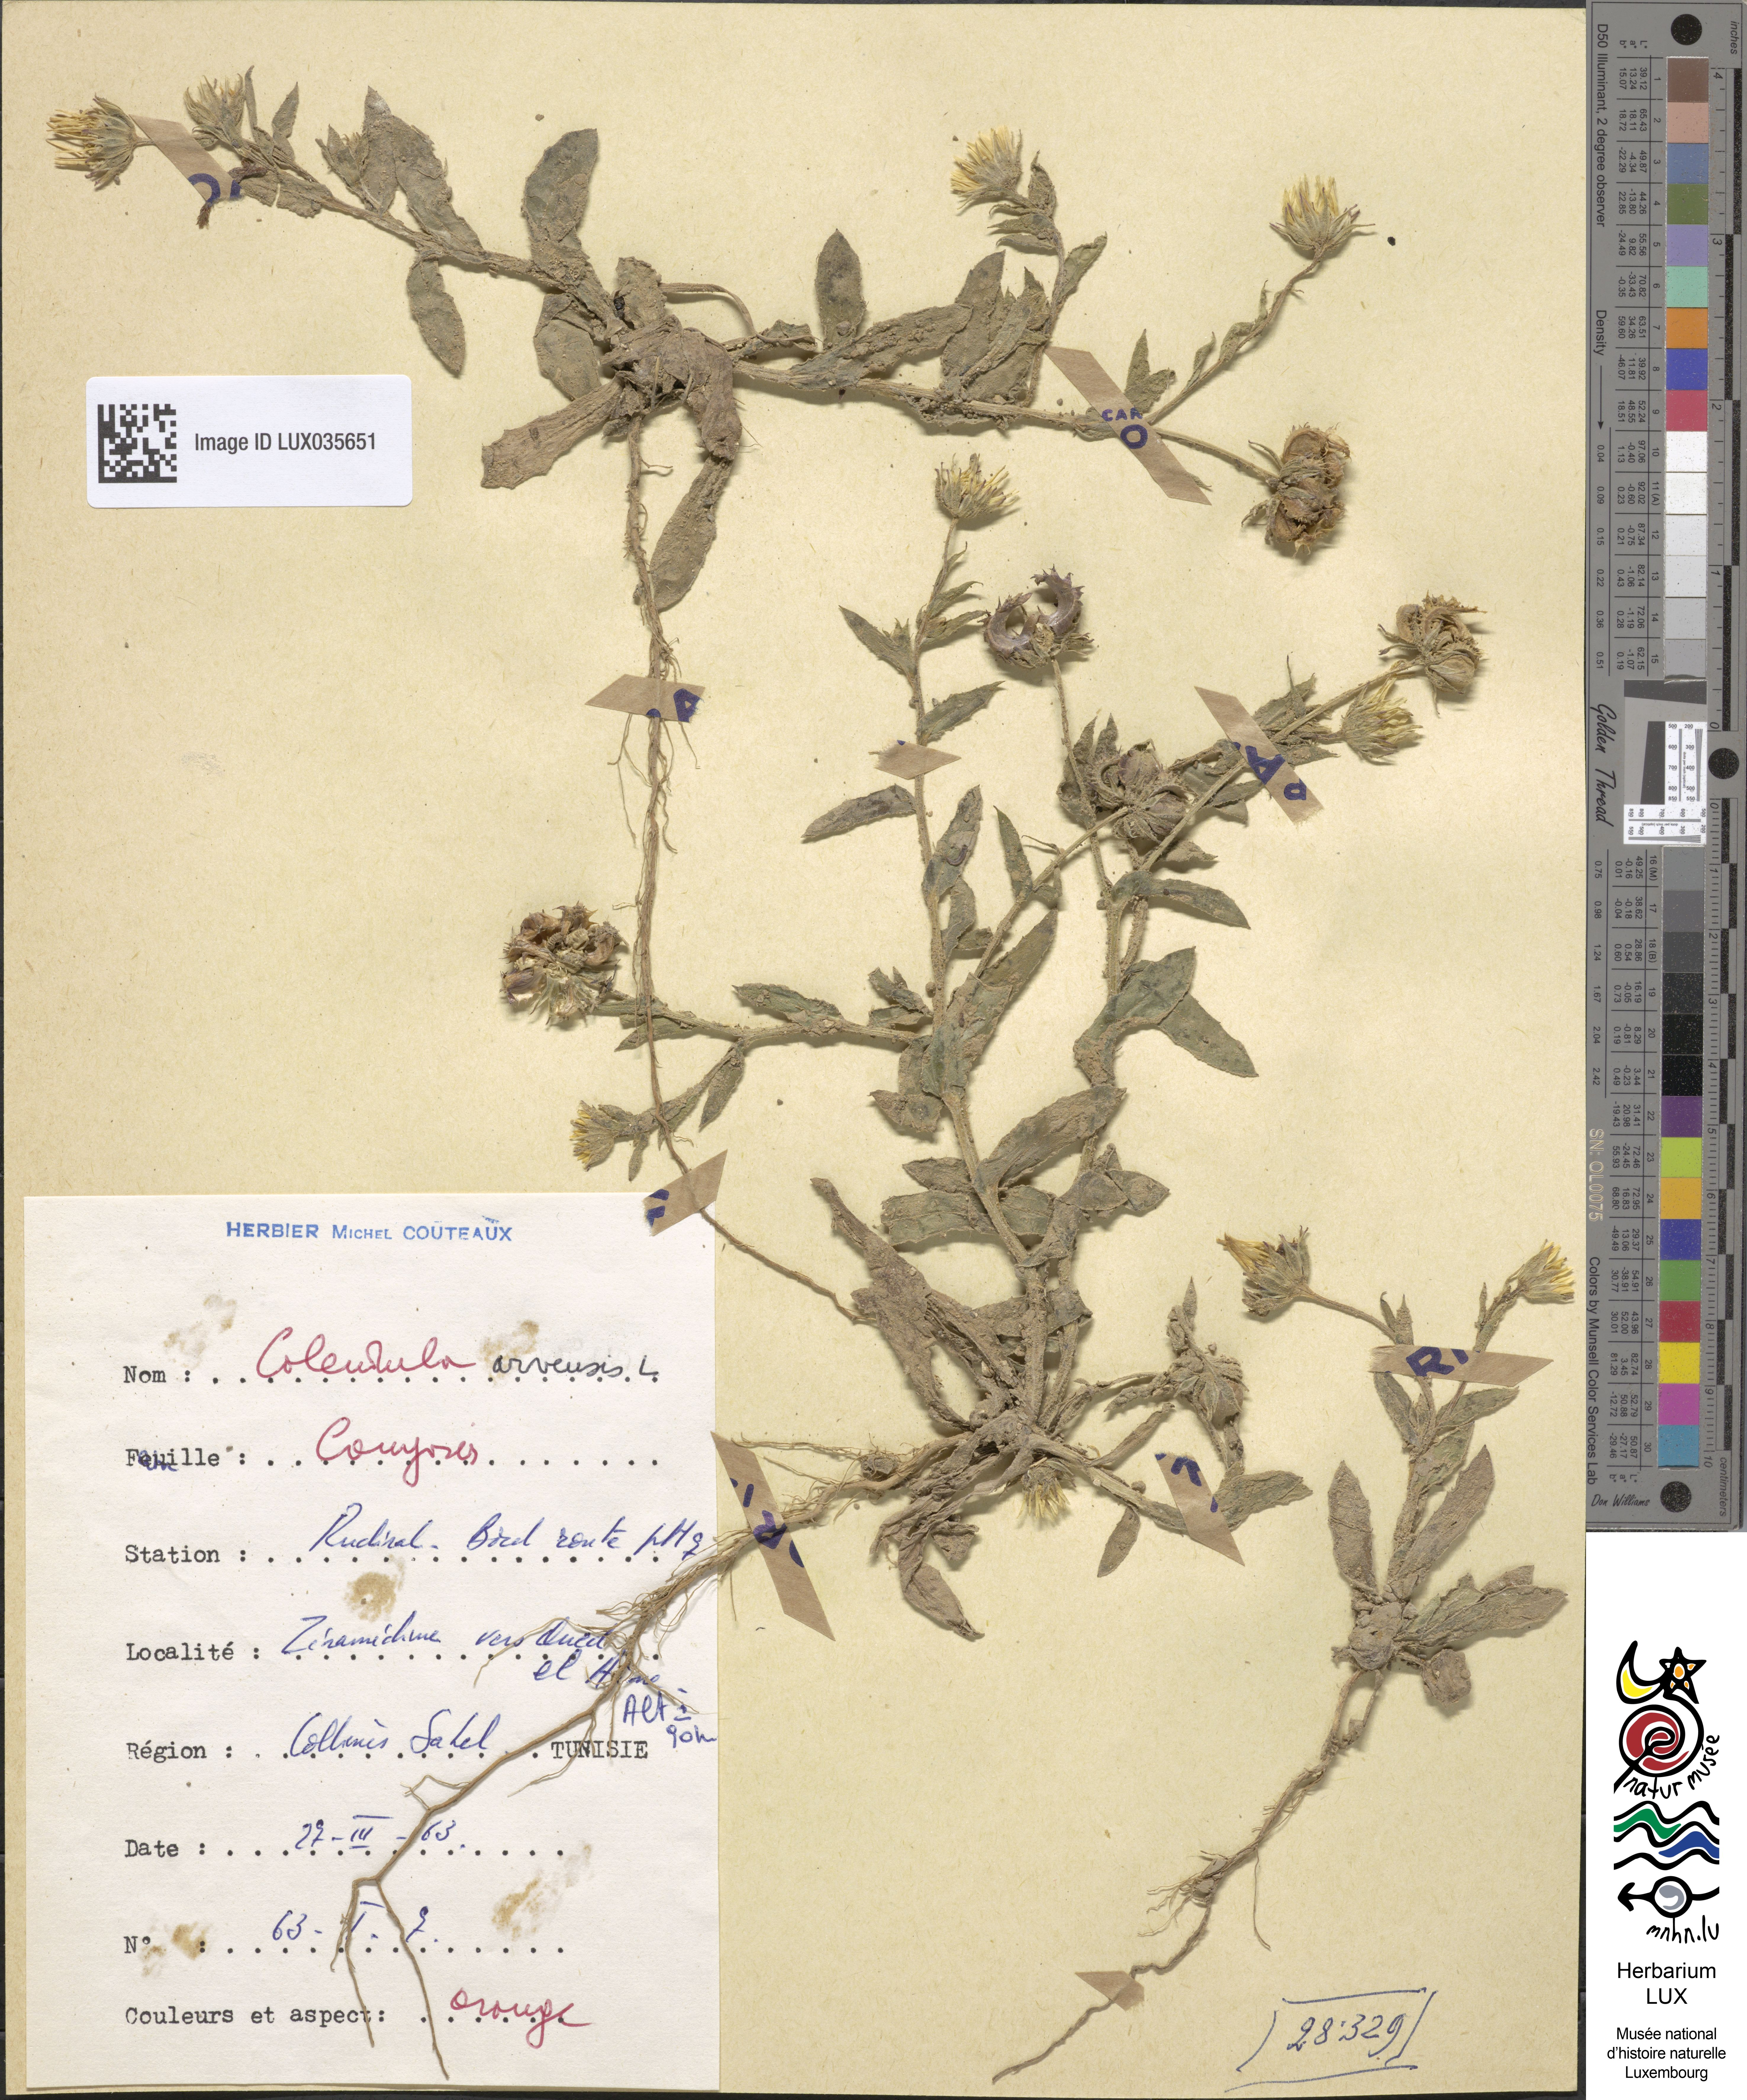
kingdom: Plantae
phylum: Tracheophyta
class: Magnoliopsida
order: Asterales
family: Asteraceae
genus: Calendula
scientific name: Calendula arvensis
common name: Field marigold
